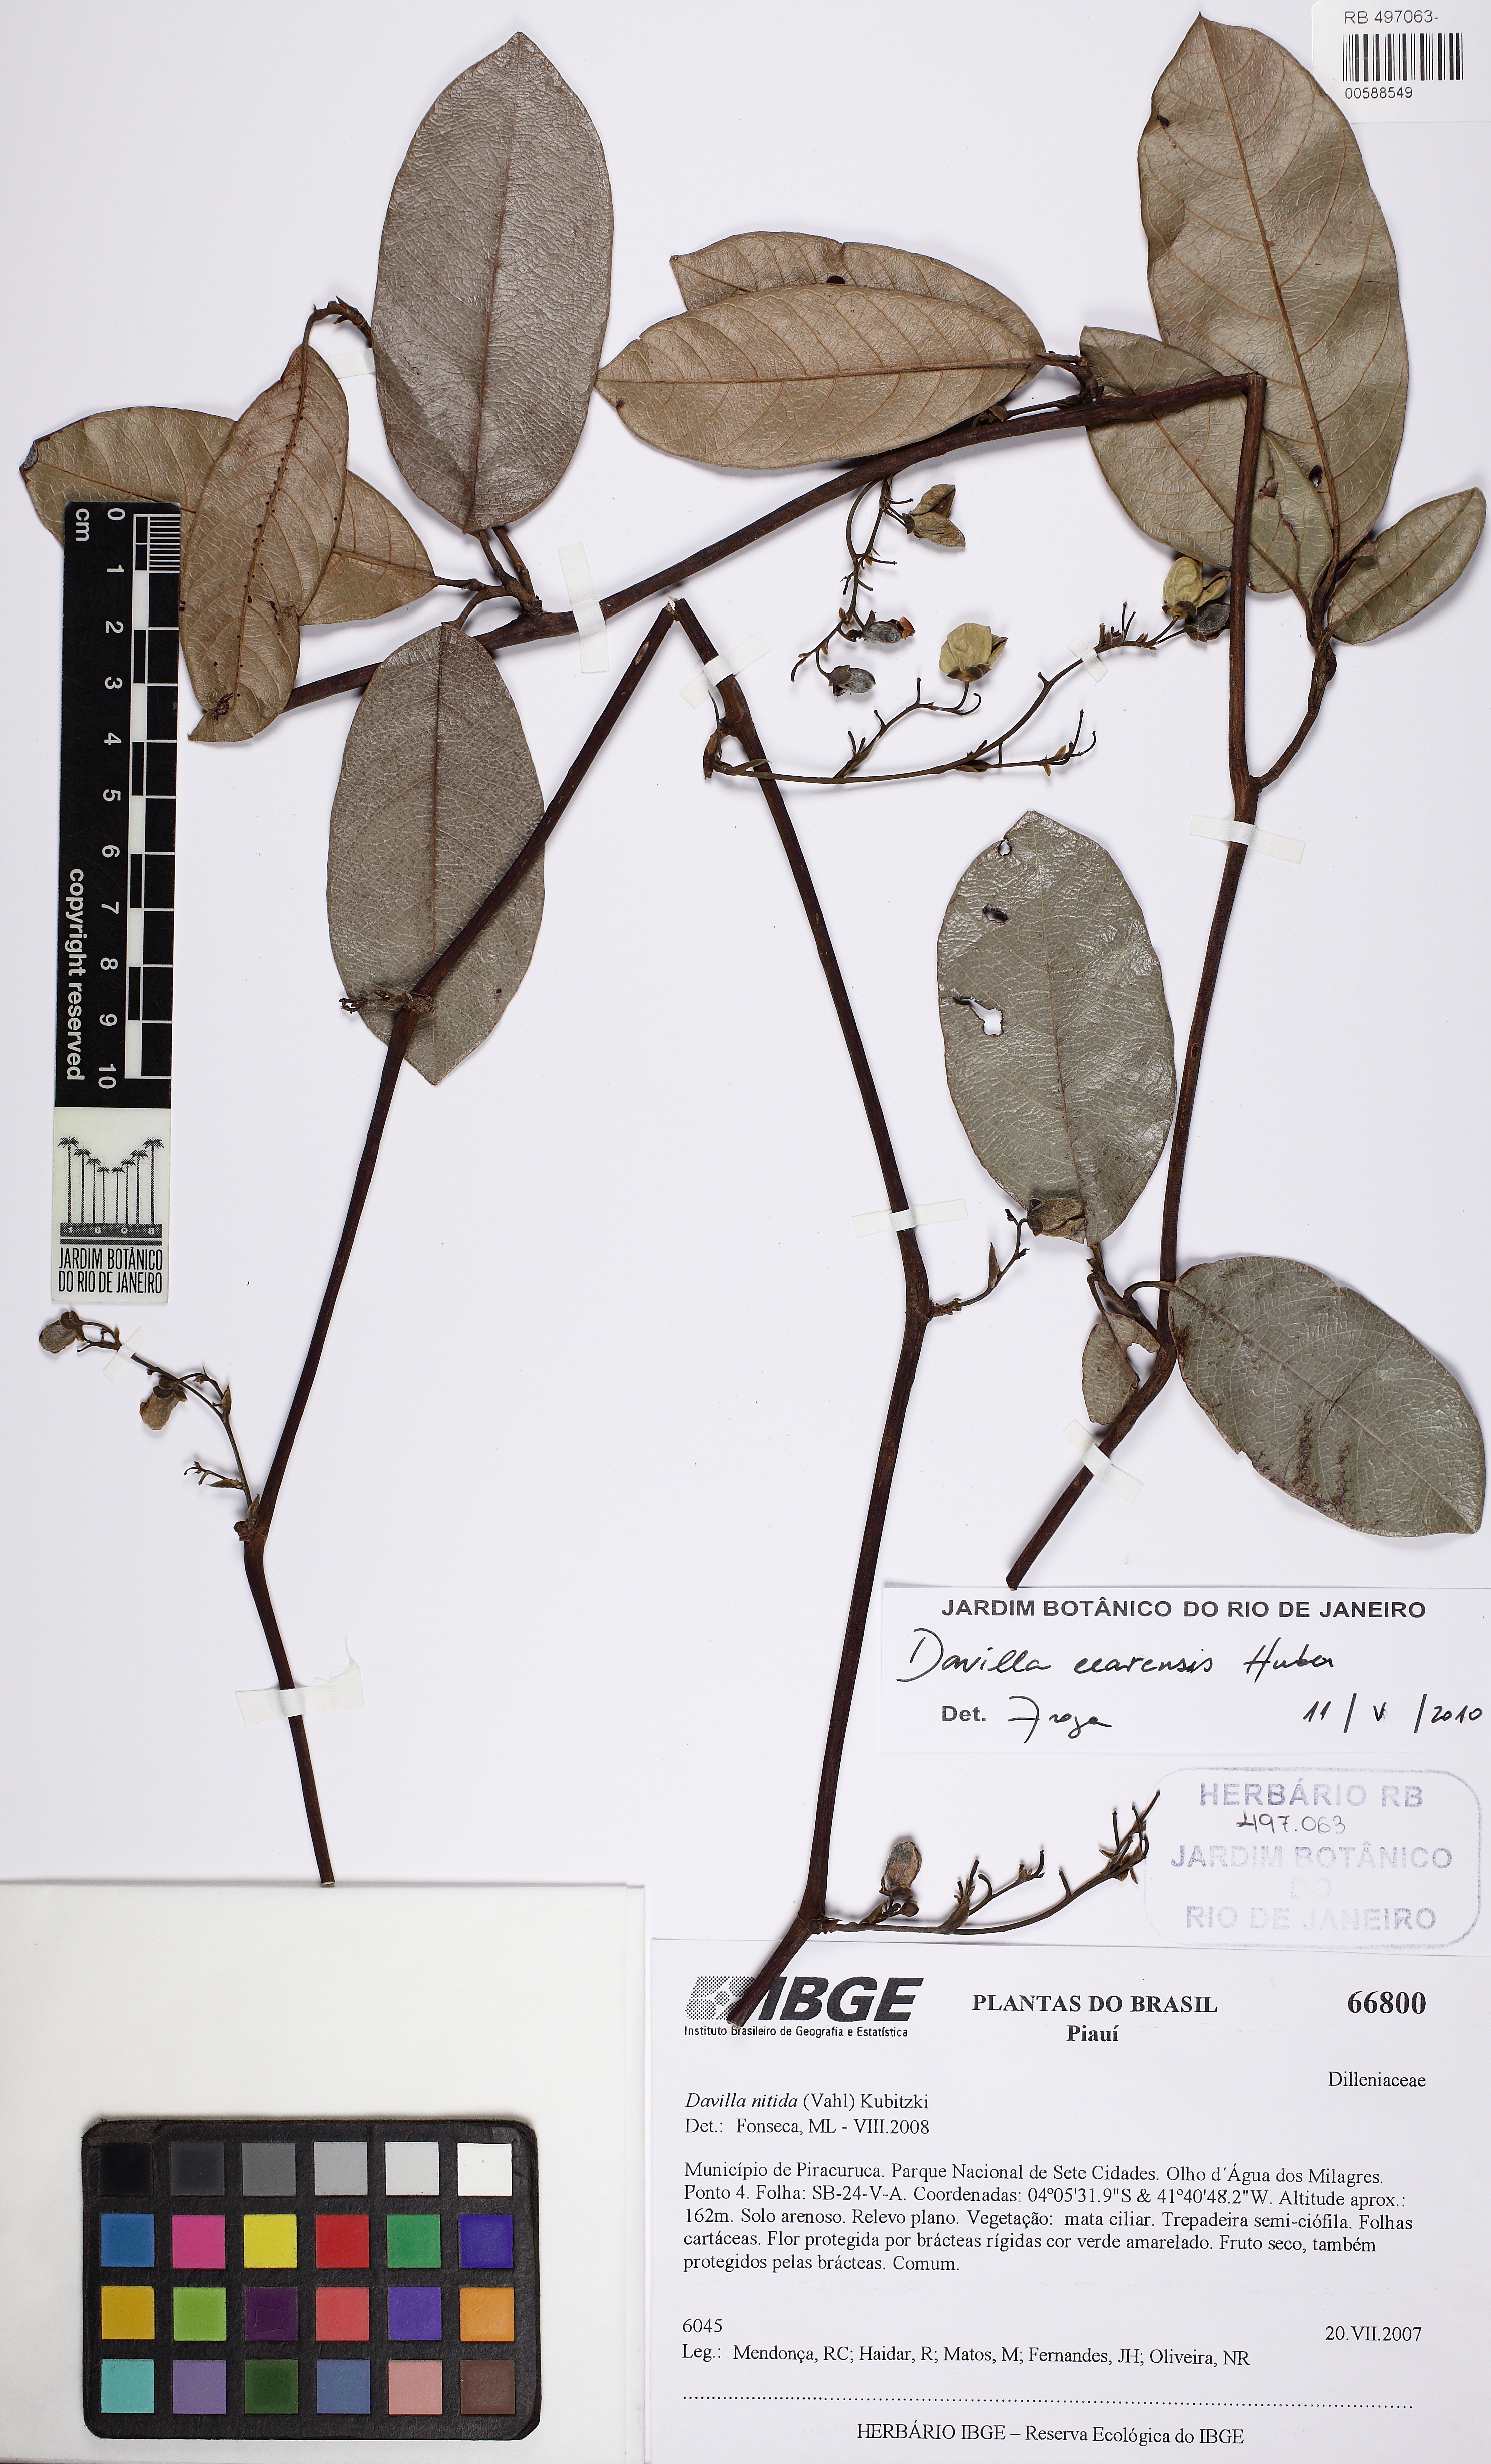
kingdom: Plantae
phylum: Tracheophyta
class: Magnoliopsida
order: Dilleniales
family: Dilleniaceae
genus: Davilla
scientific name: Davilla cearensis
